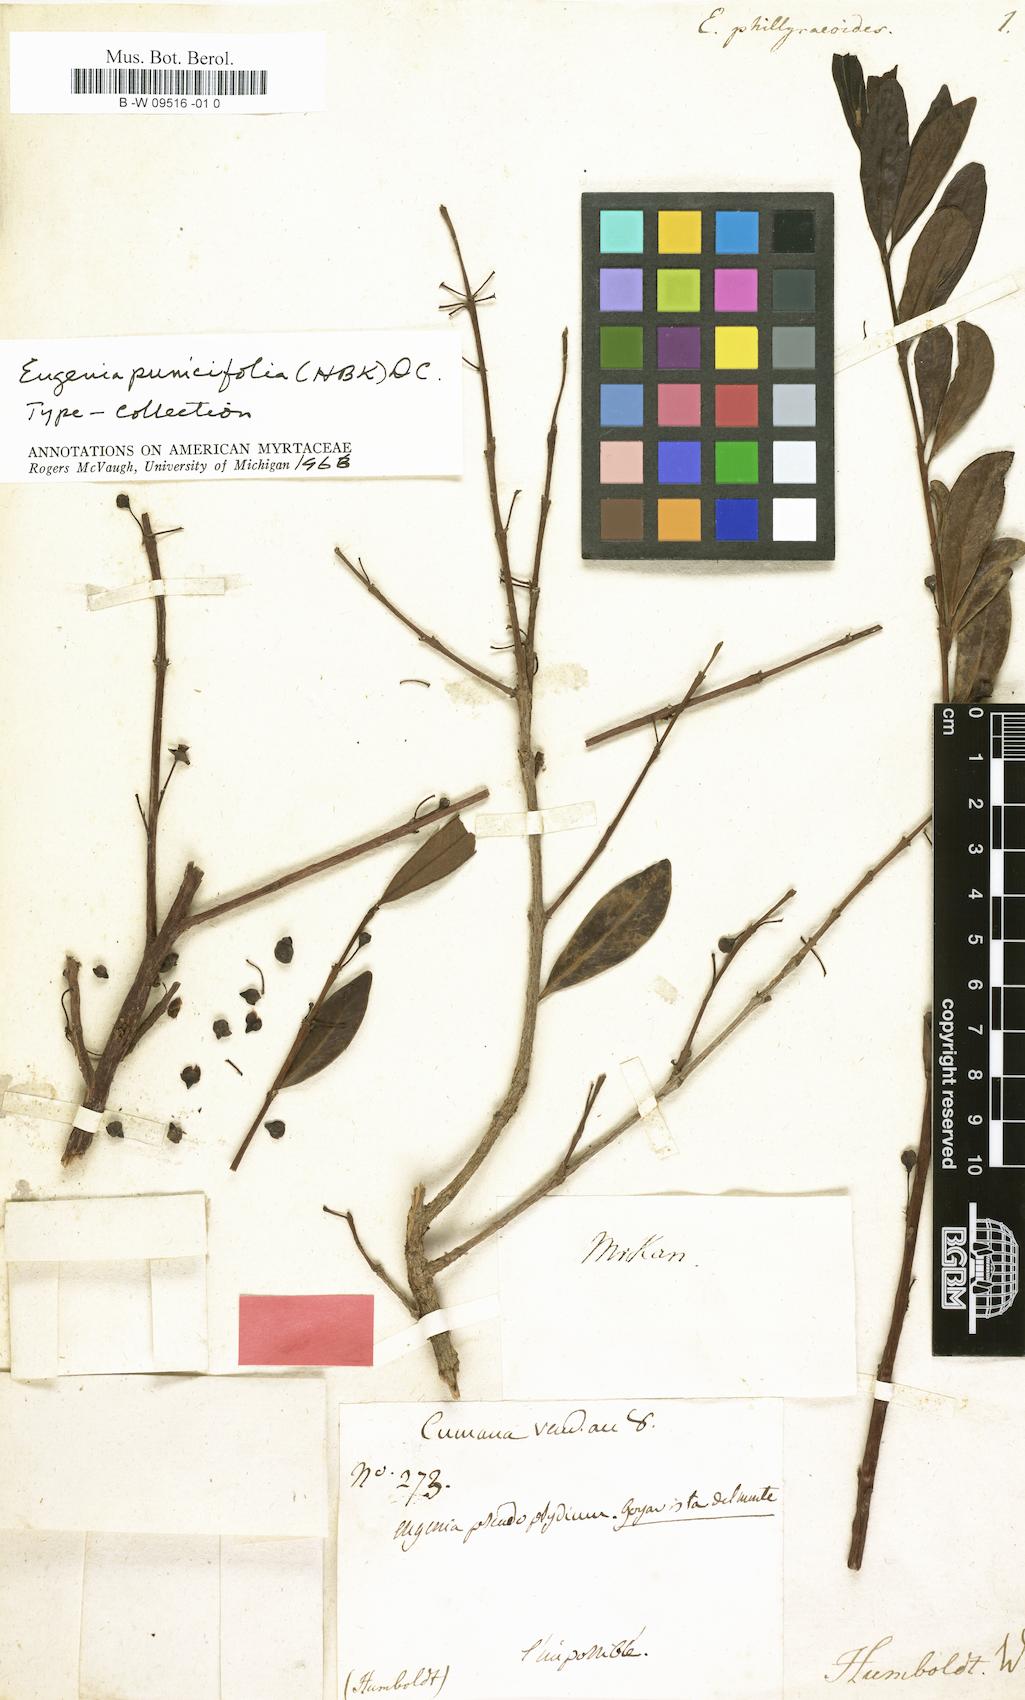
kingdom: Plantae
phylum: Tracheophyta
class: Magnoliopsida
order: Myrtales
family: Myrtaceae
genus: Eugenia
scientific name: Eugenia phillyreoides
